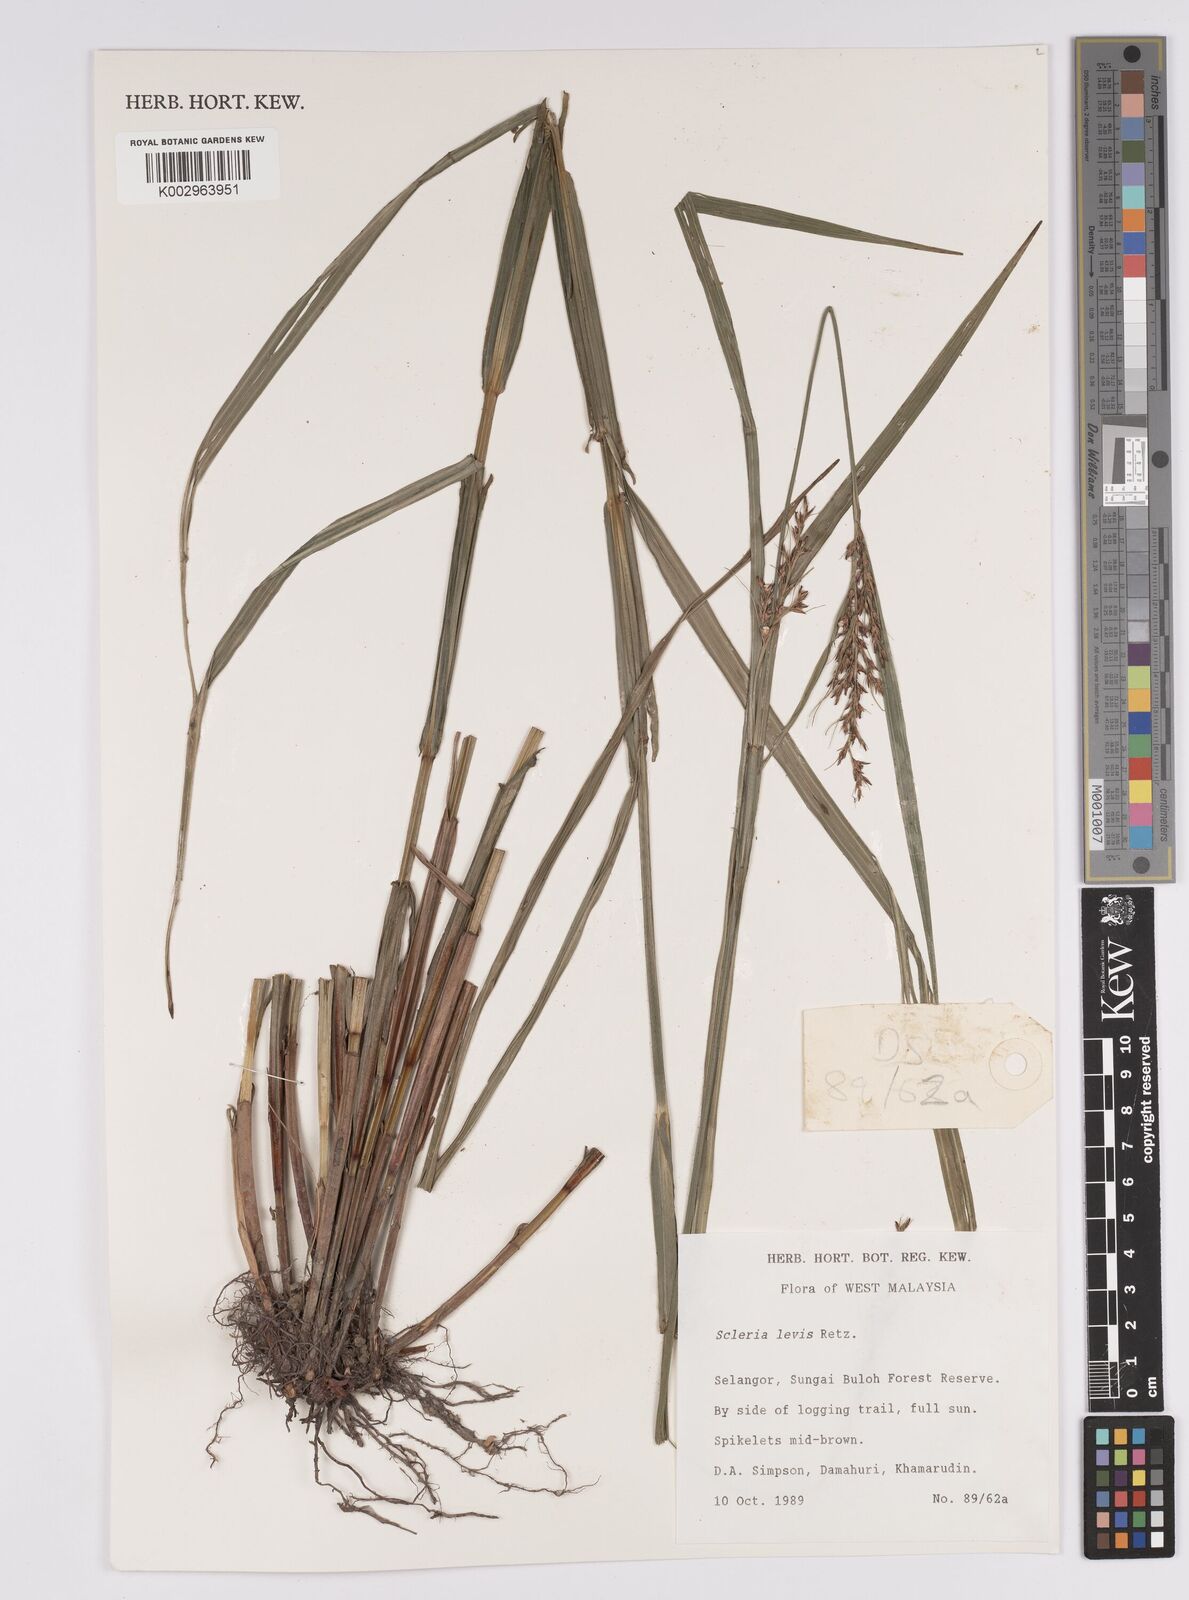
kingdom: Plantae
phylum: Tracheophyta
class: Liliopsida
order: Poales
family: Cyperaceae
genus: Scleria
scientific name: Scleria levis
